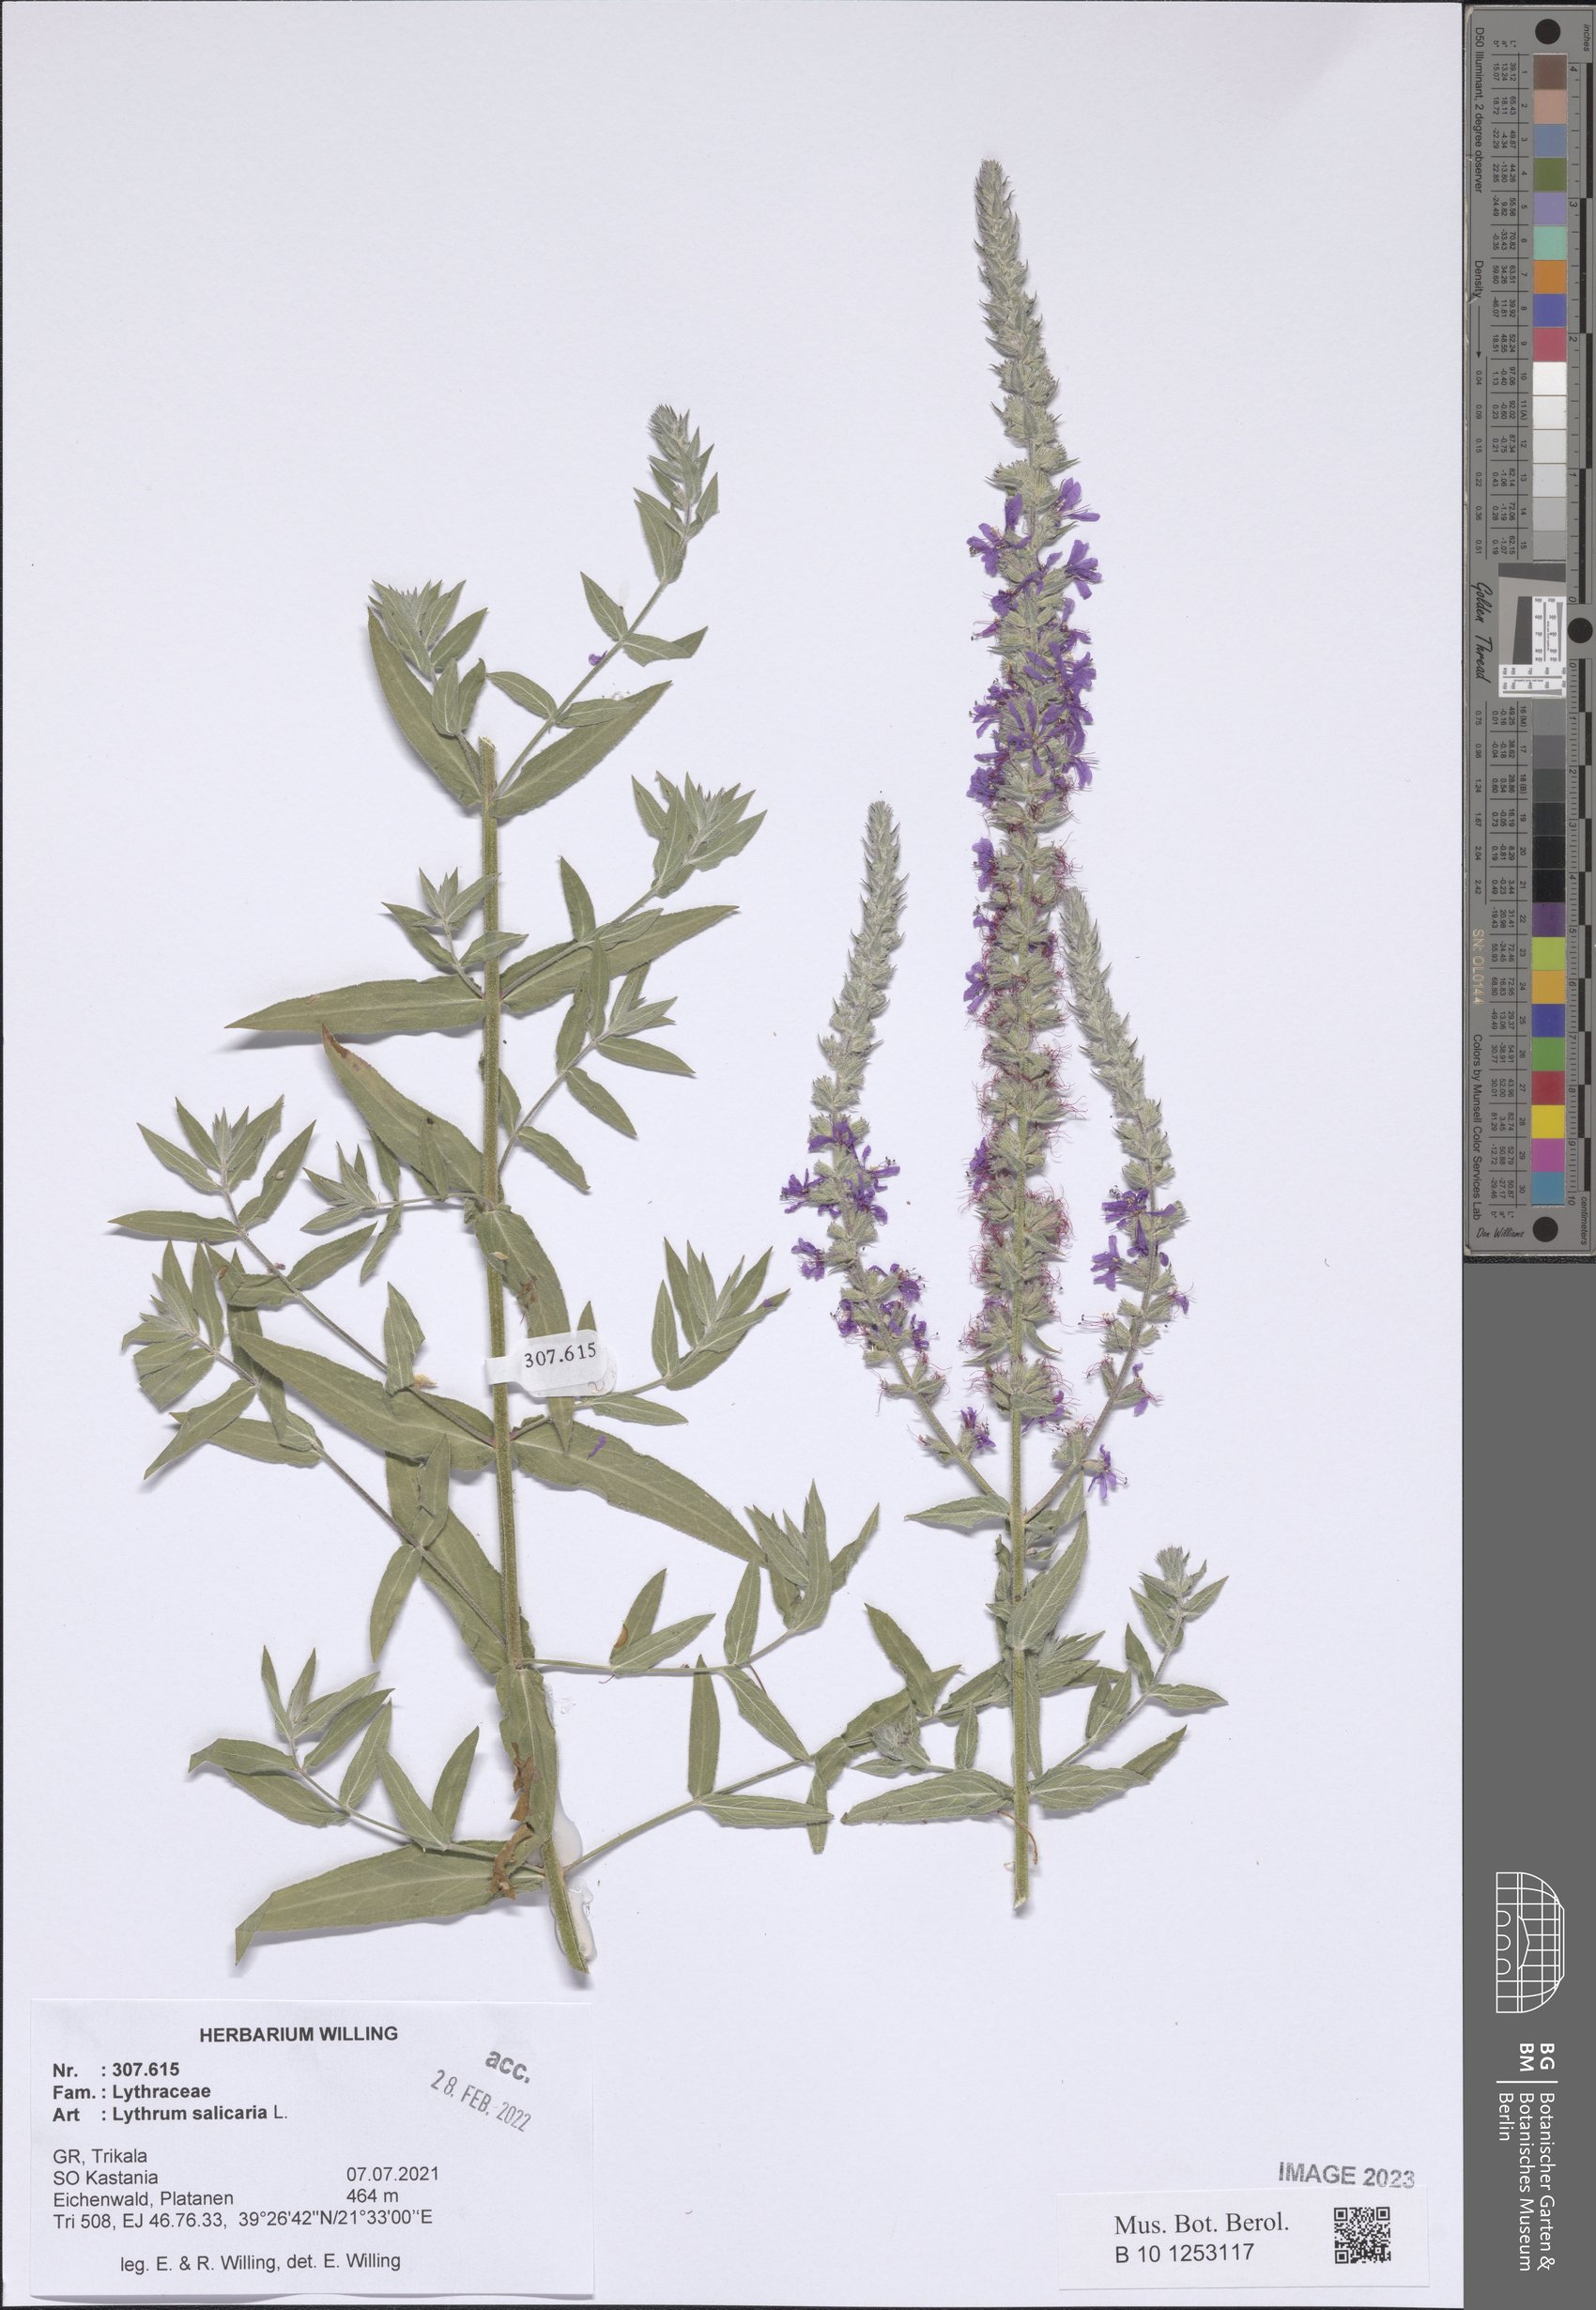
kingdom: Plantae
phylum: Tracheophyta
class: Magnoliopsida
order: Myrtales
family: Lythraceae
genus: Lythrum
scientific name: Lythrum salicaria
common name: Purple loosestrife
